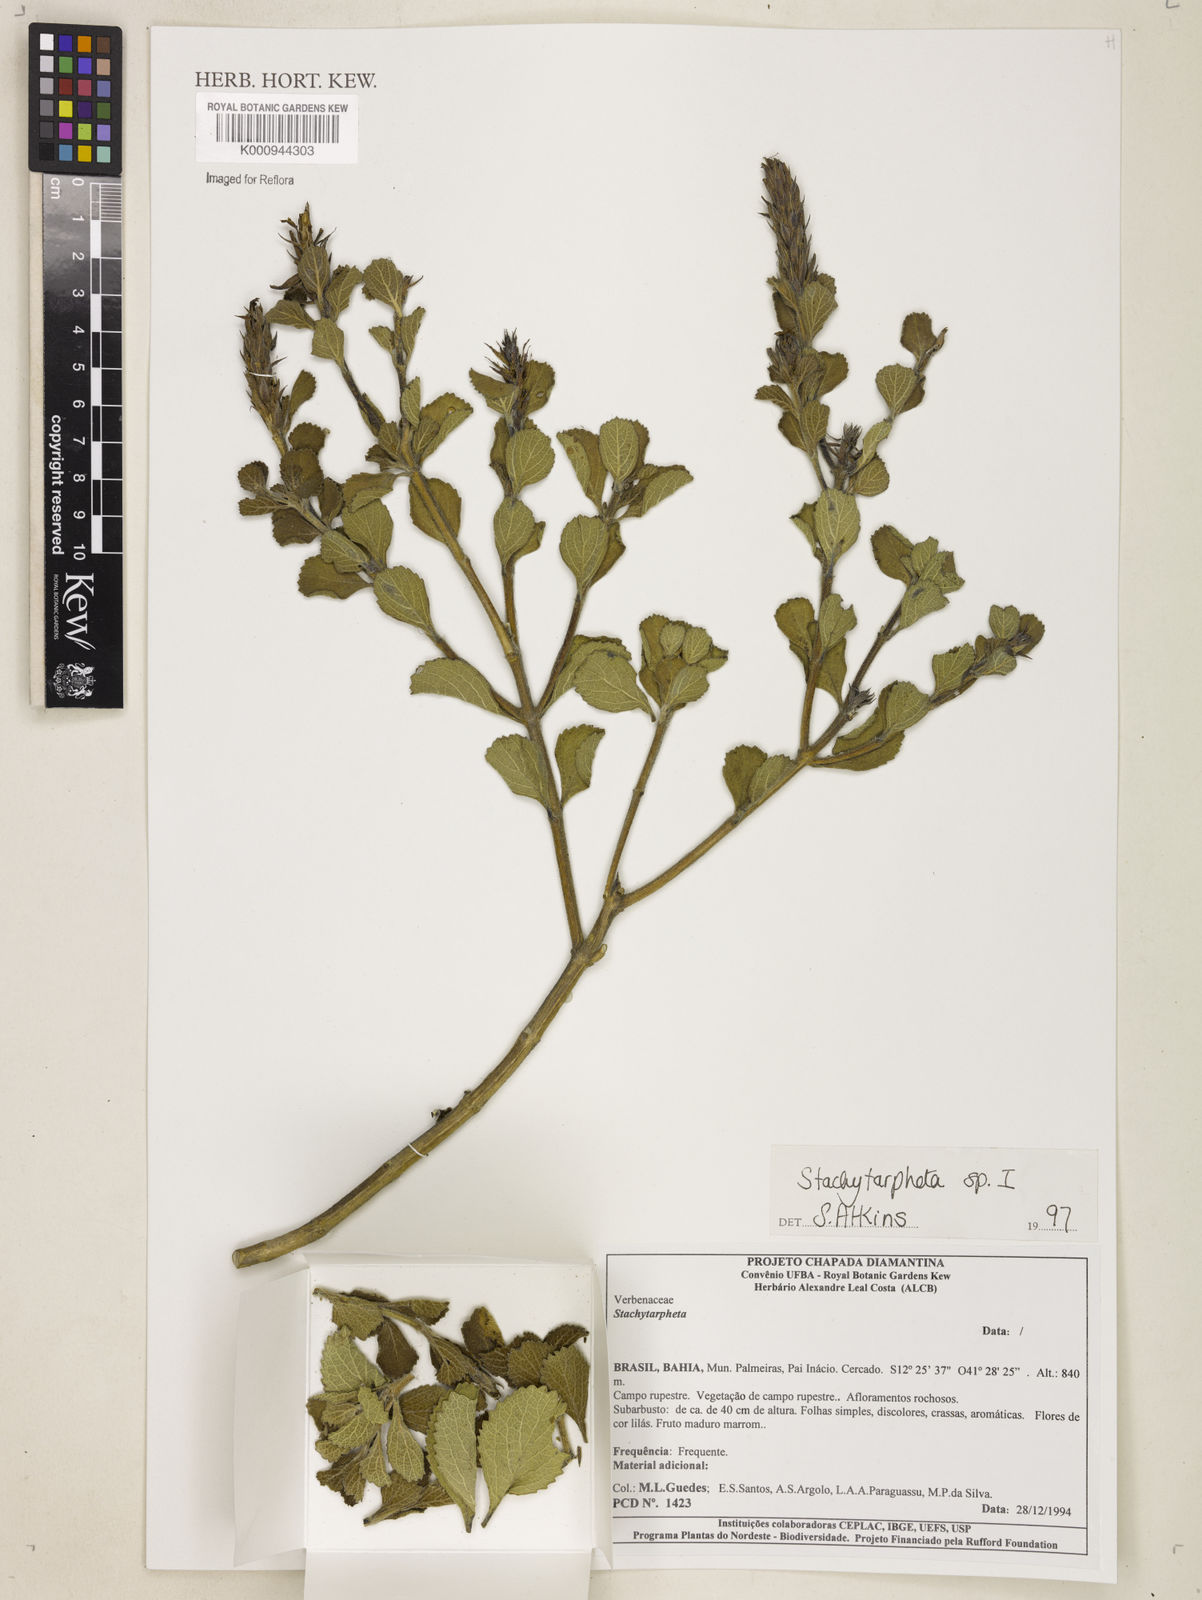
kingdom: Plantae
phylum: Tracheophyta
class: Magnoliopsida
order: Lamiales
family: Verbenaceae
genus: Stachytarpheta
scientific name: Stachytarpheta
